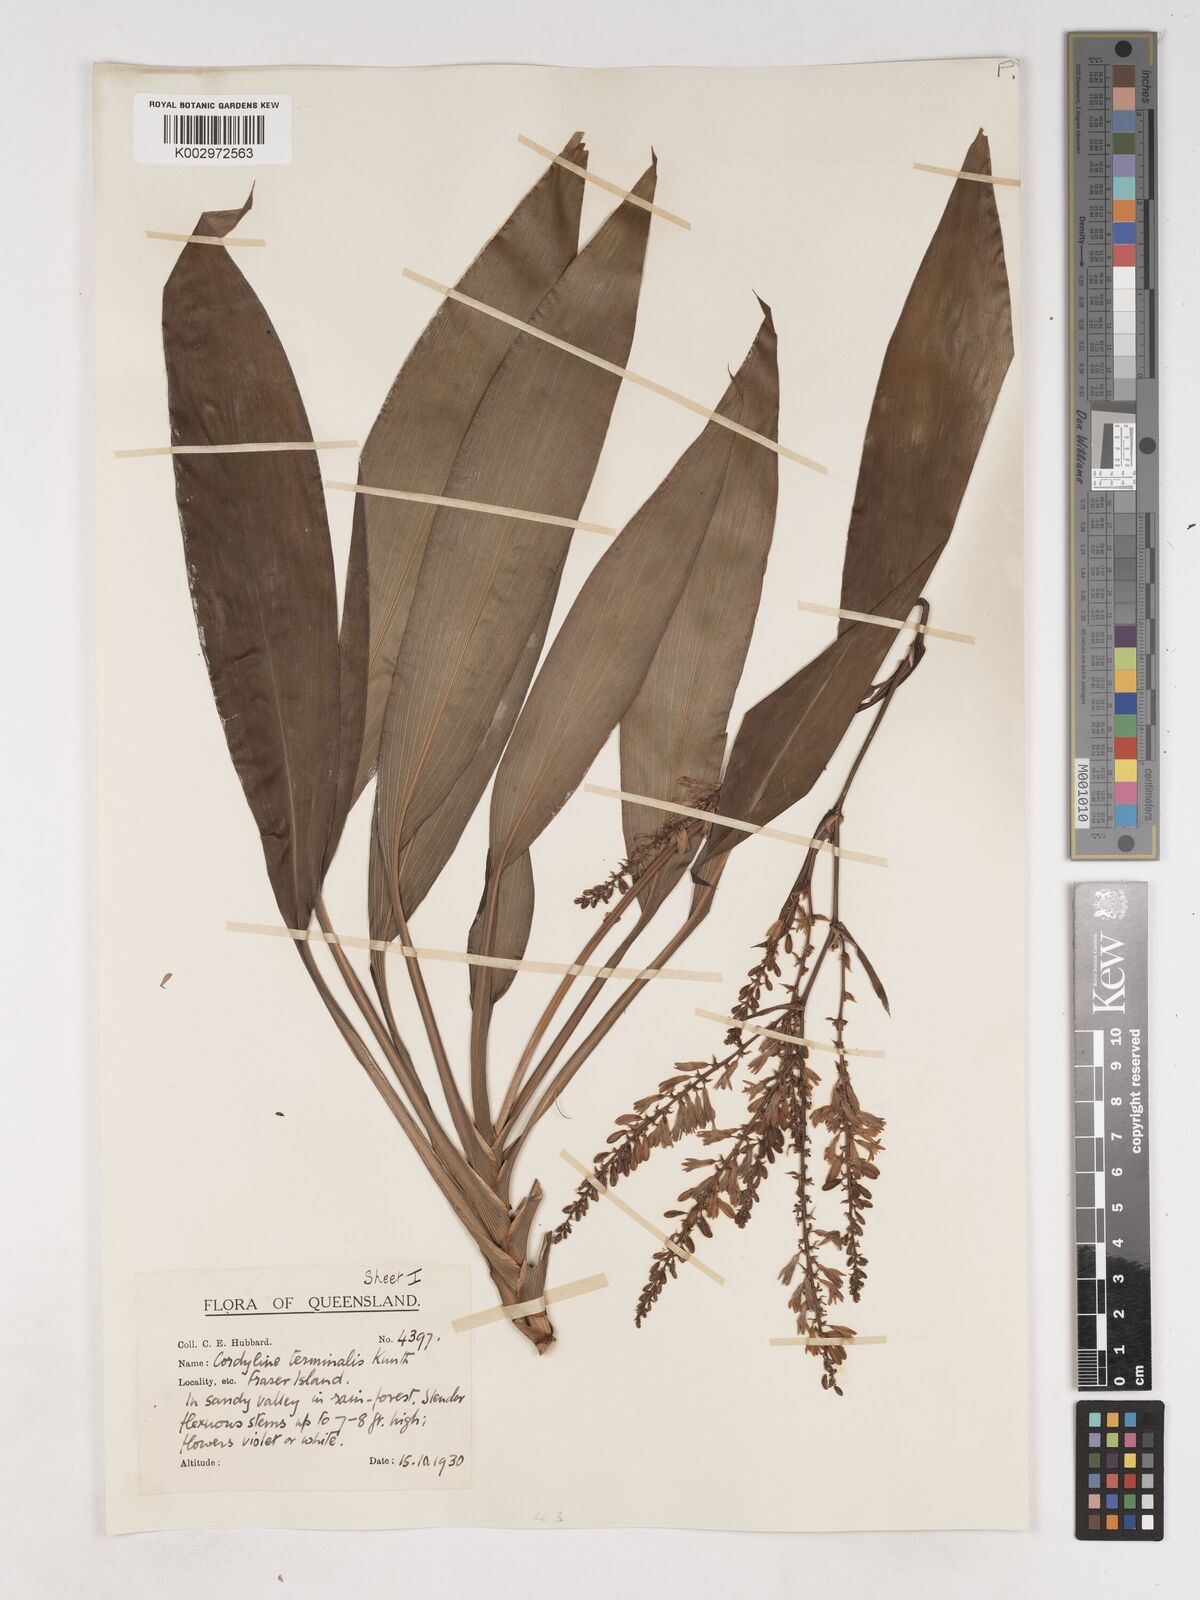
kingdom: Plantae
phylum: Tracheophyta
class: Liliopsida
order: Asparagales
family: Asparagaceae
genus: Cordyline
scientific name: Cordyline fruticosa
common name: Good-luck-plant
